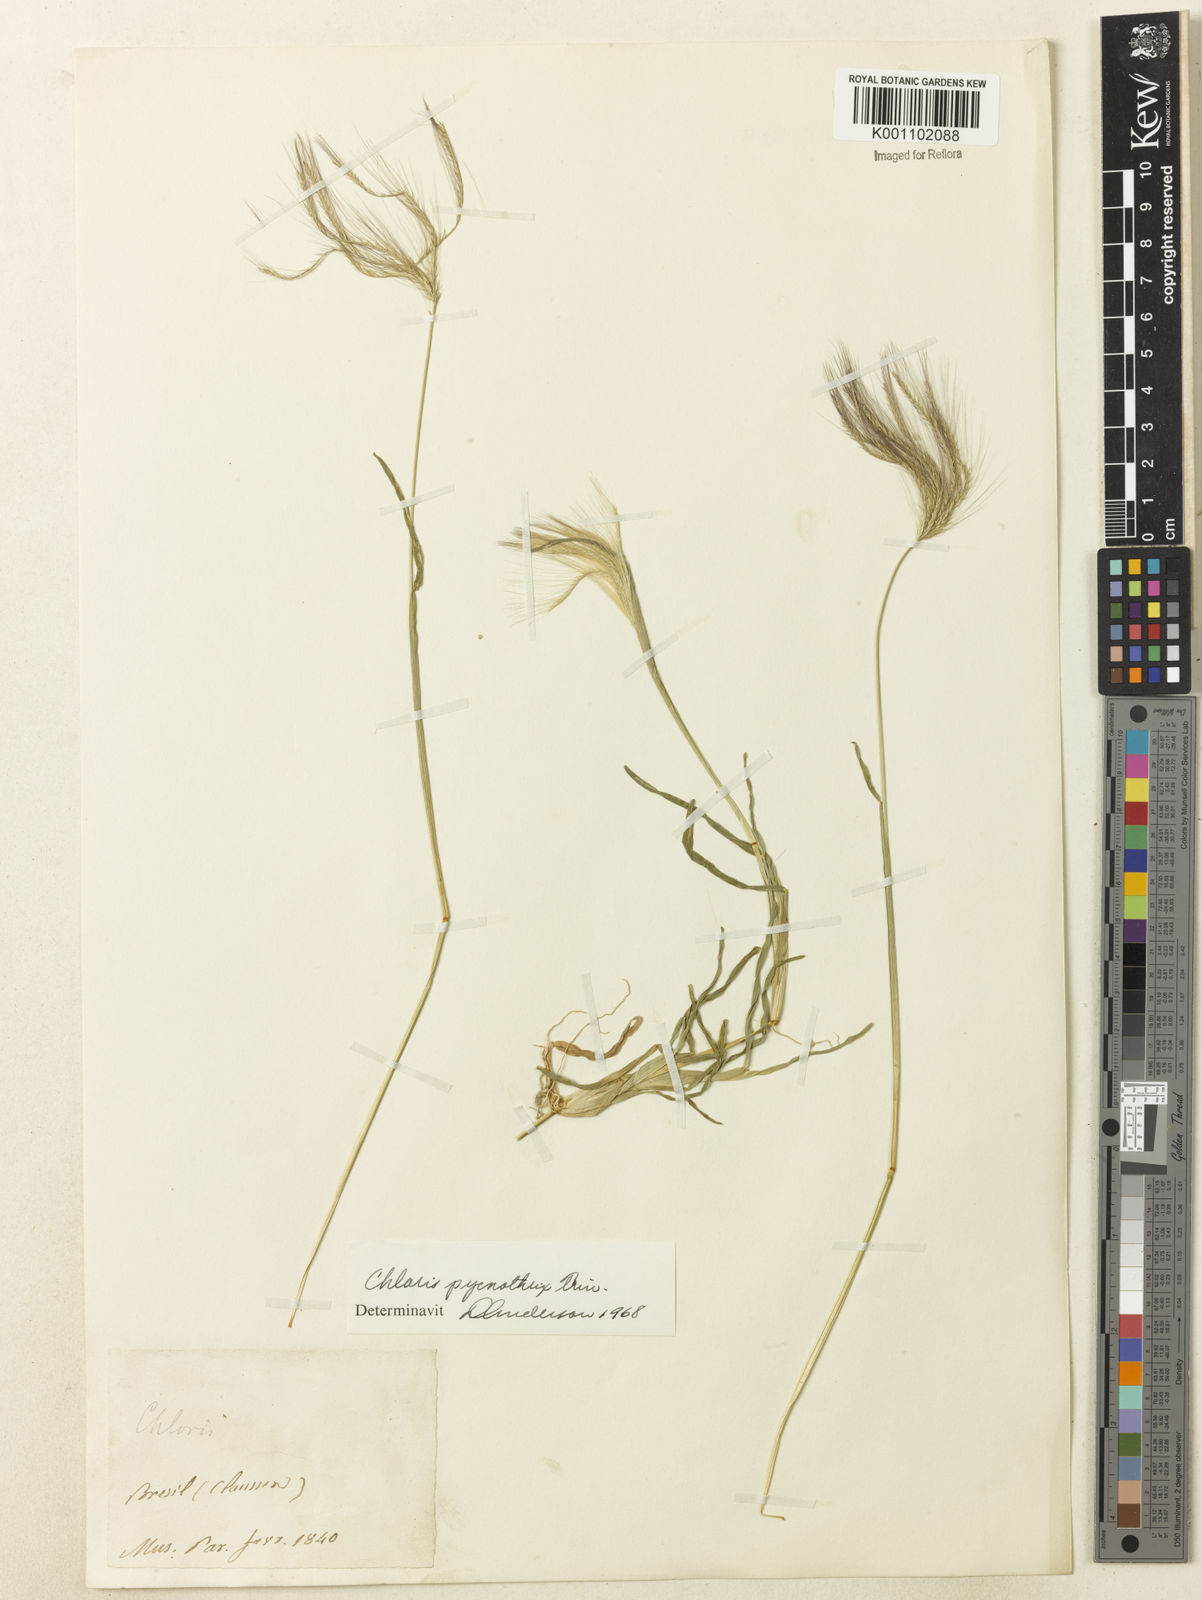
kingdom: Plantae
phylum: Tracheophyta
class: Liliopsida
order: Poales
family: Poaceae
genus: Chloris
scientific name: Chloris pycnothrix
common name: Spiderweb chloris
